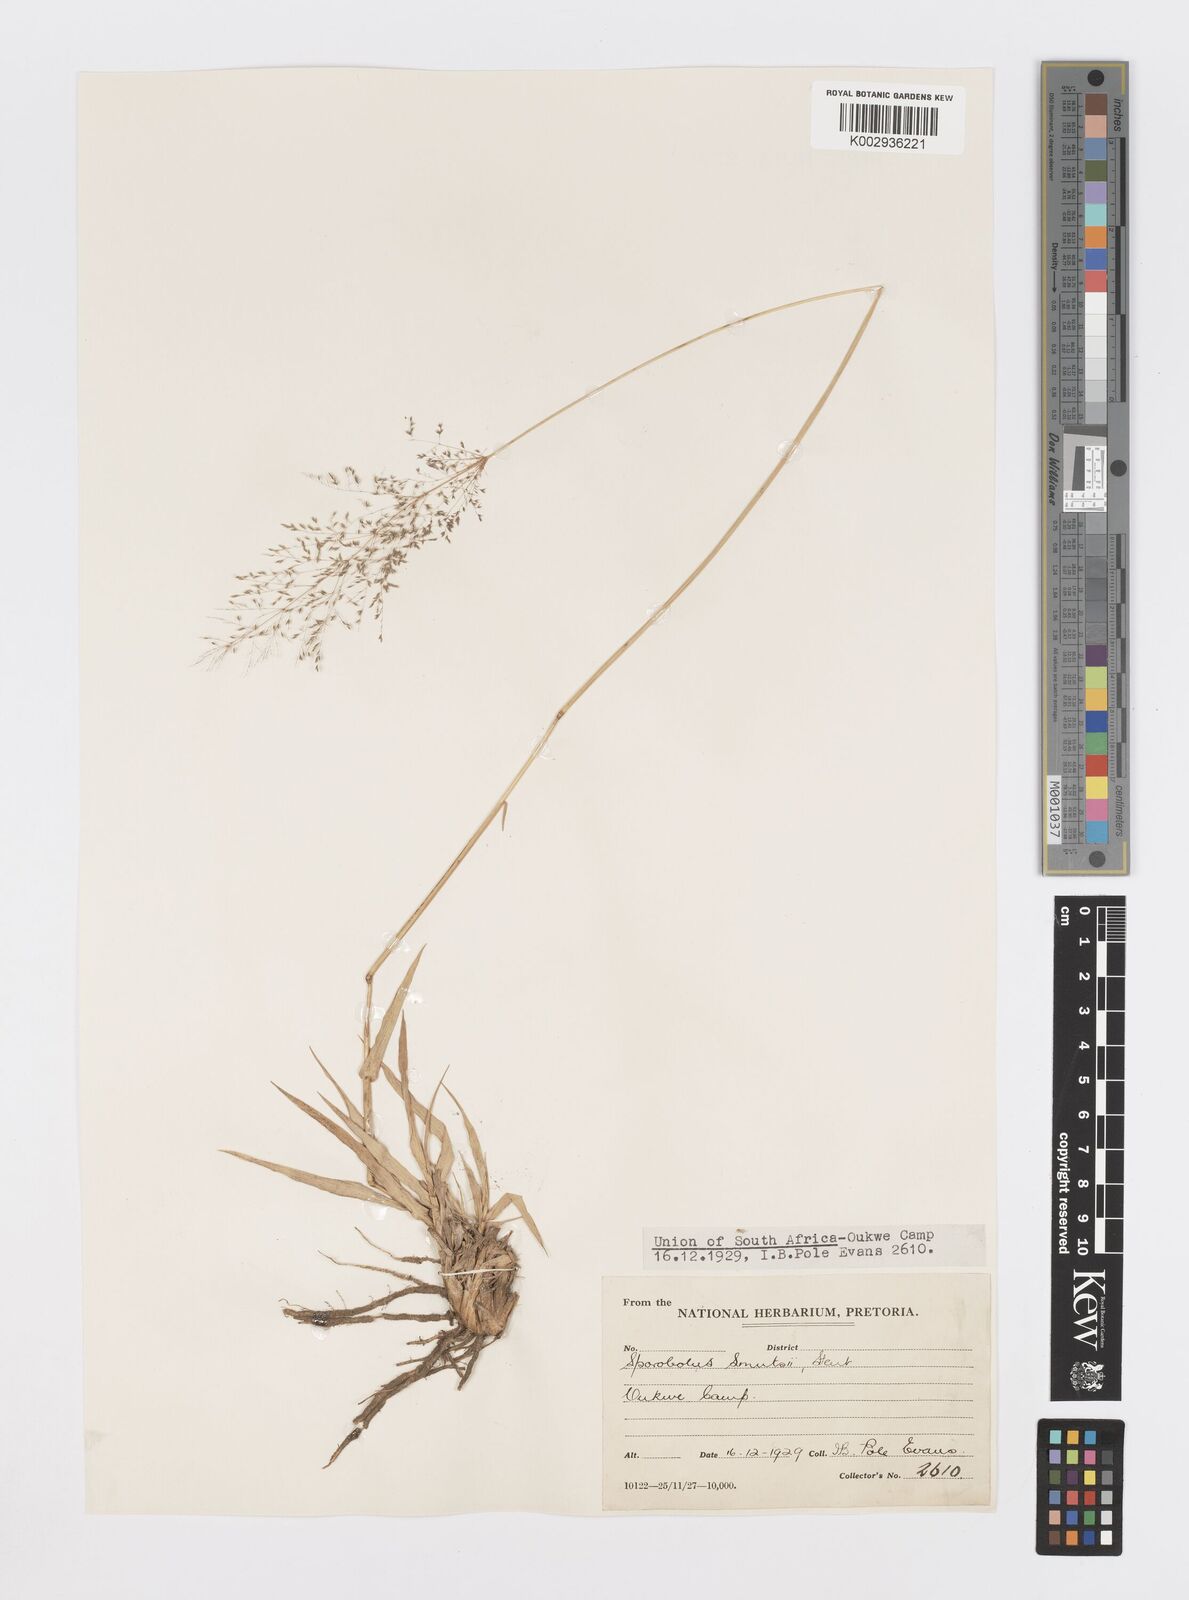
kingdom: Plantae
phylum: Tracheophyta
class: Liliopsida
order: Poales
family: Poaceae
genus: Sporobolus
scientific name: Sporobolus ioclados
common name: Pan dropseed
